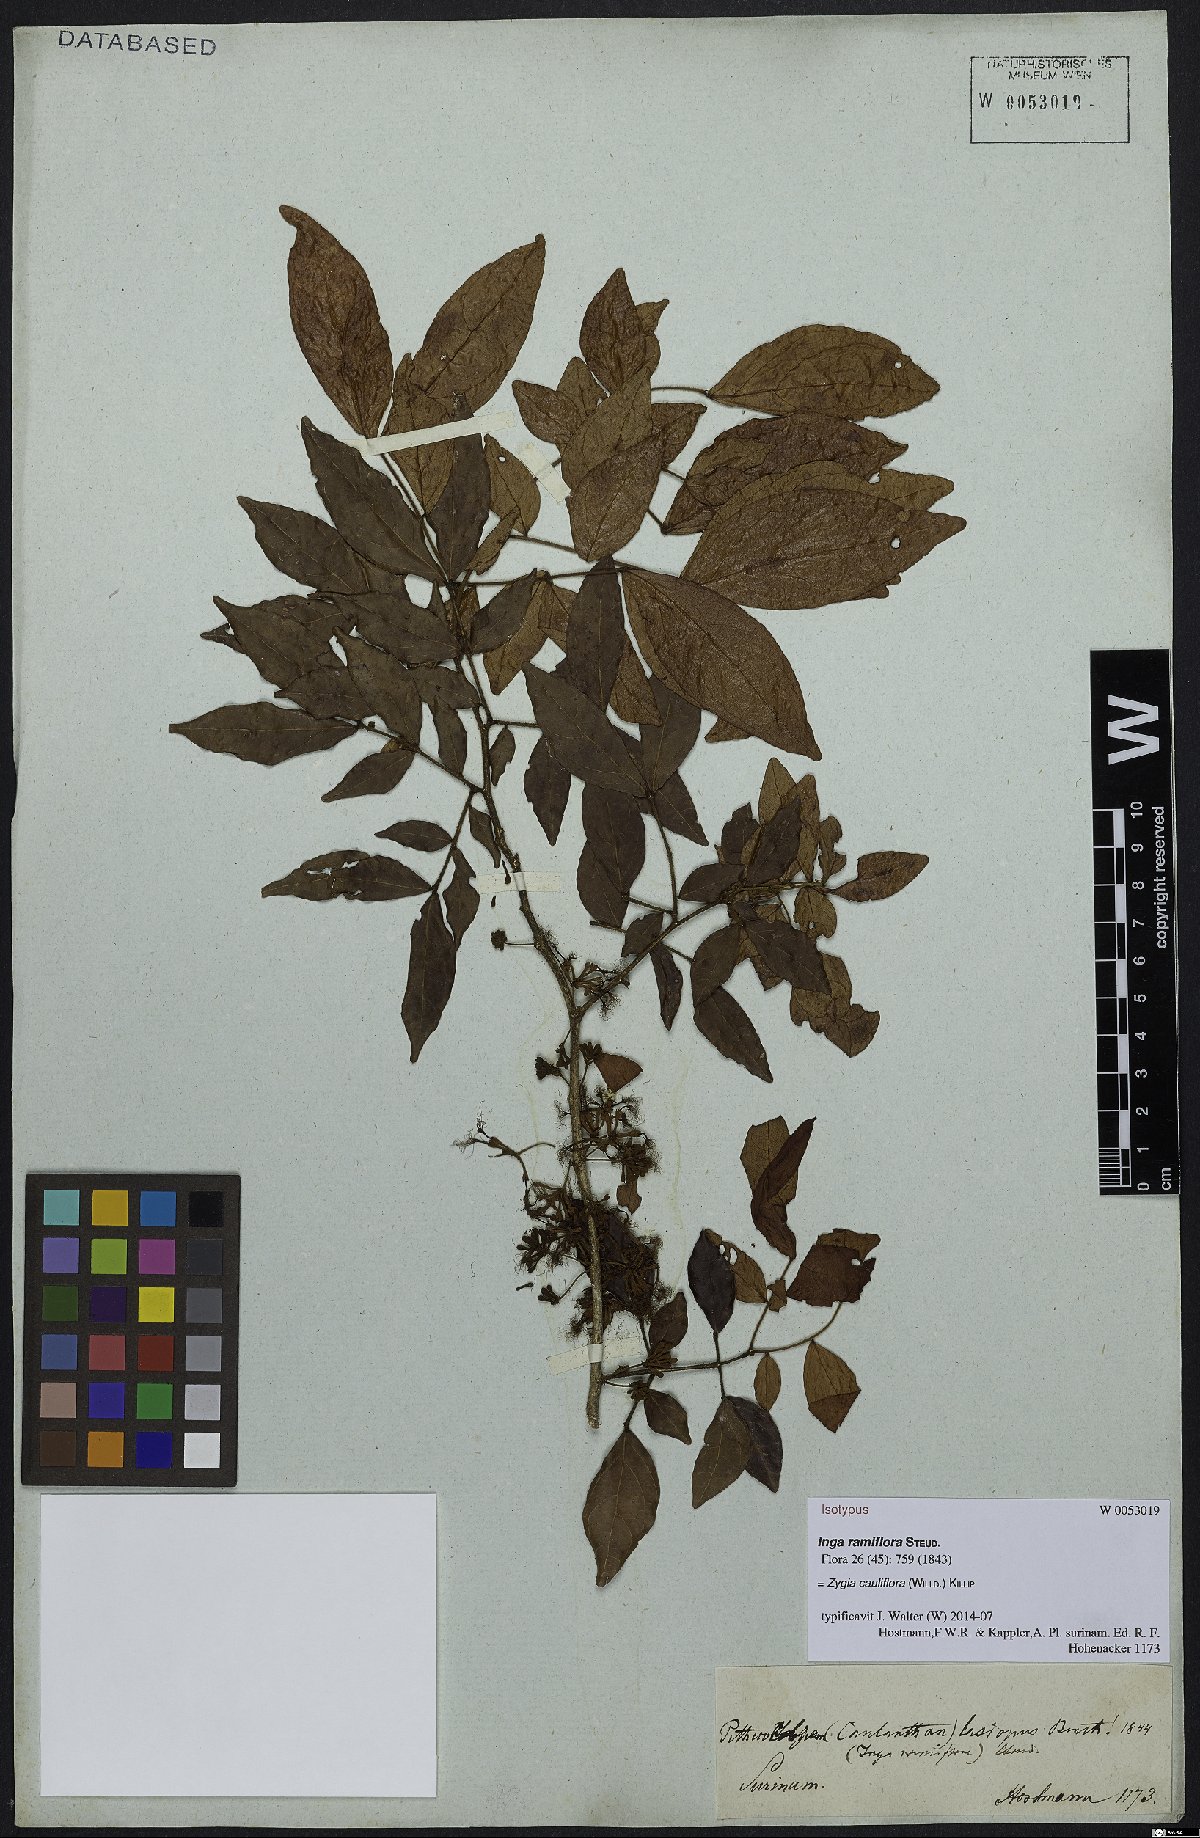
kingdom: Plantae
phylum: Tracheophyta
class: Magnoliopsida
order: Fabales
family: Fabaceae
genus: Zygia
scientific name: Zygia cauliflora
